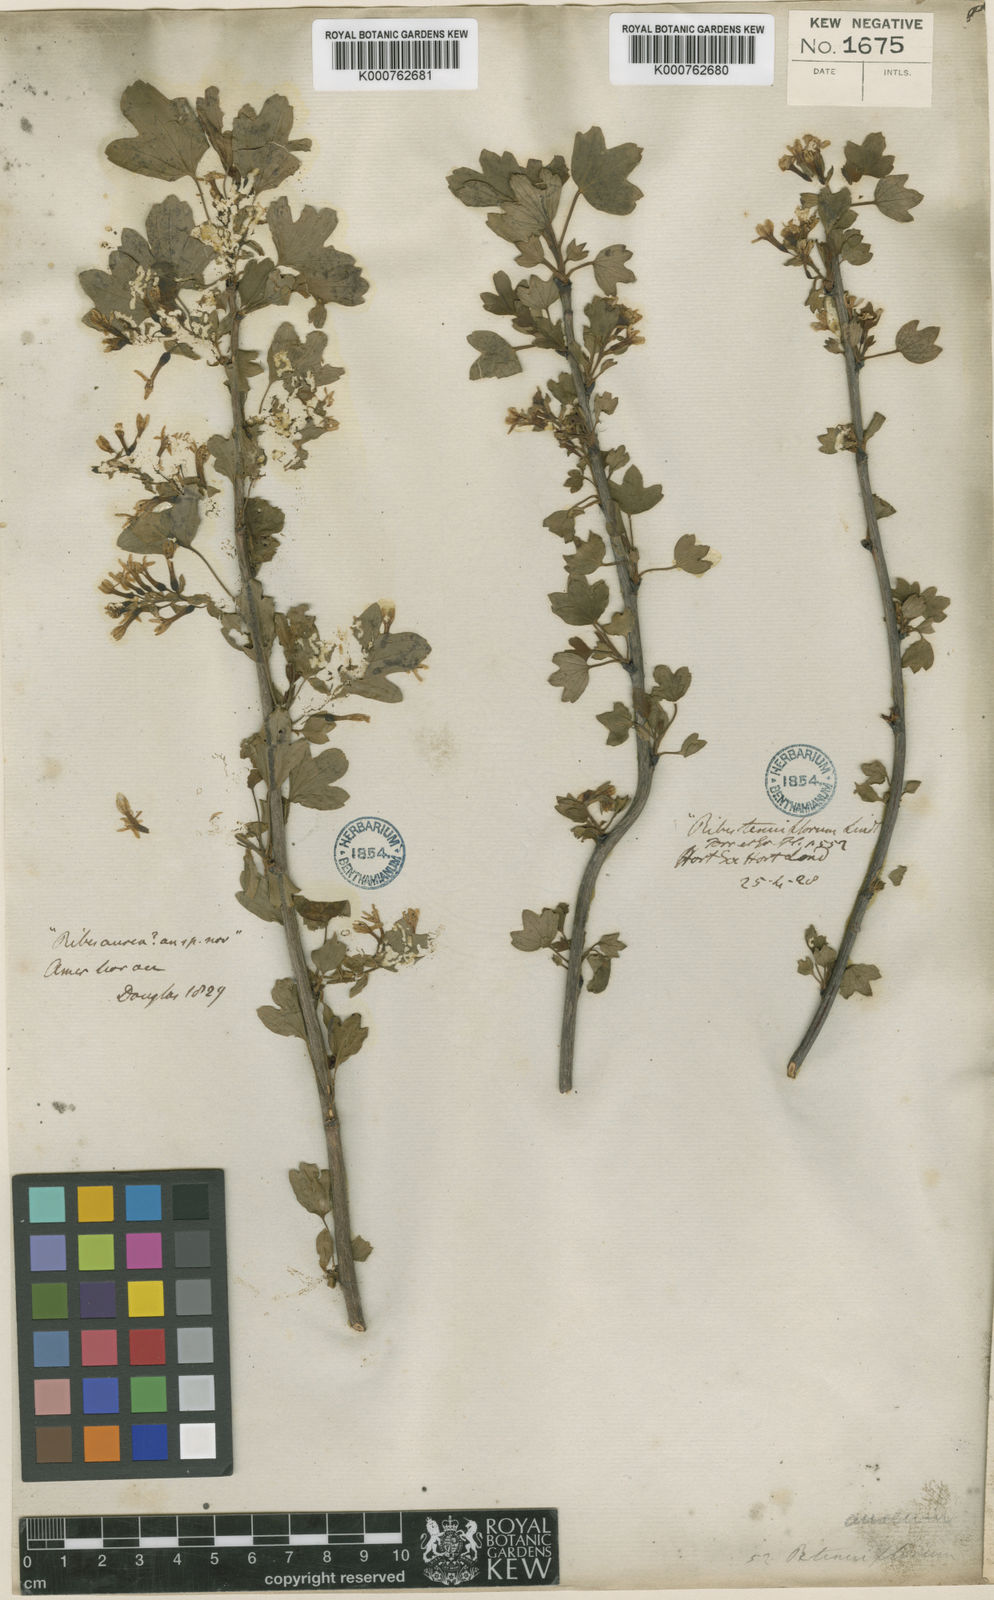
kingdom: Plantae
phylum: Tracheophyta
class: Magnoliopsida
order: Saxifragales
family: Grossulariaceae
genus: Ribes
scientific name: Ribes aureum
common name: Golden currant
